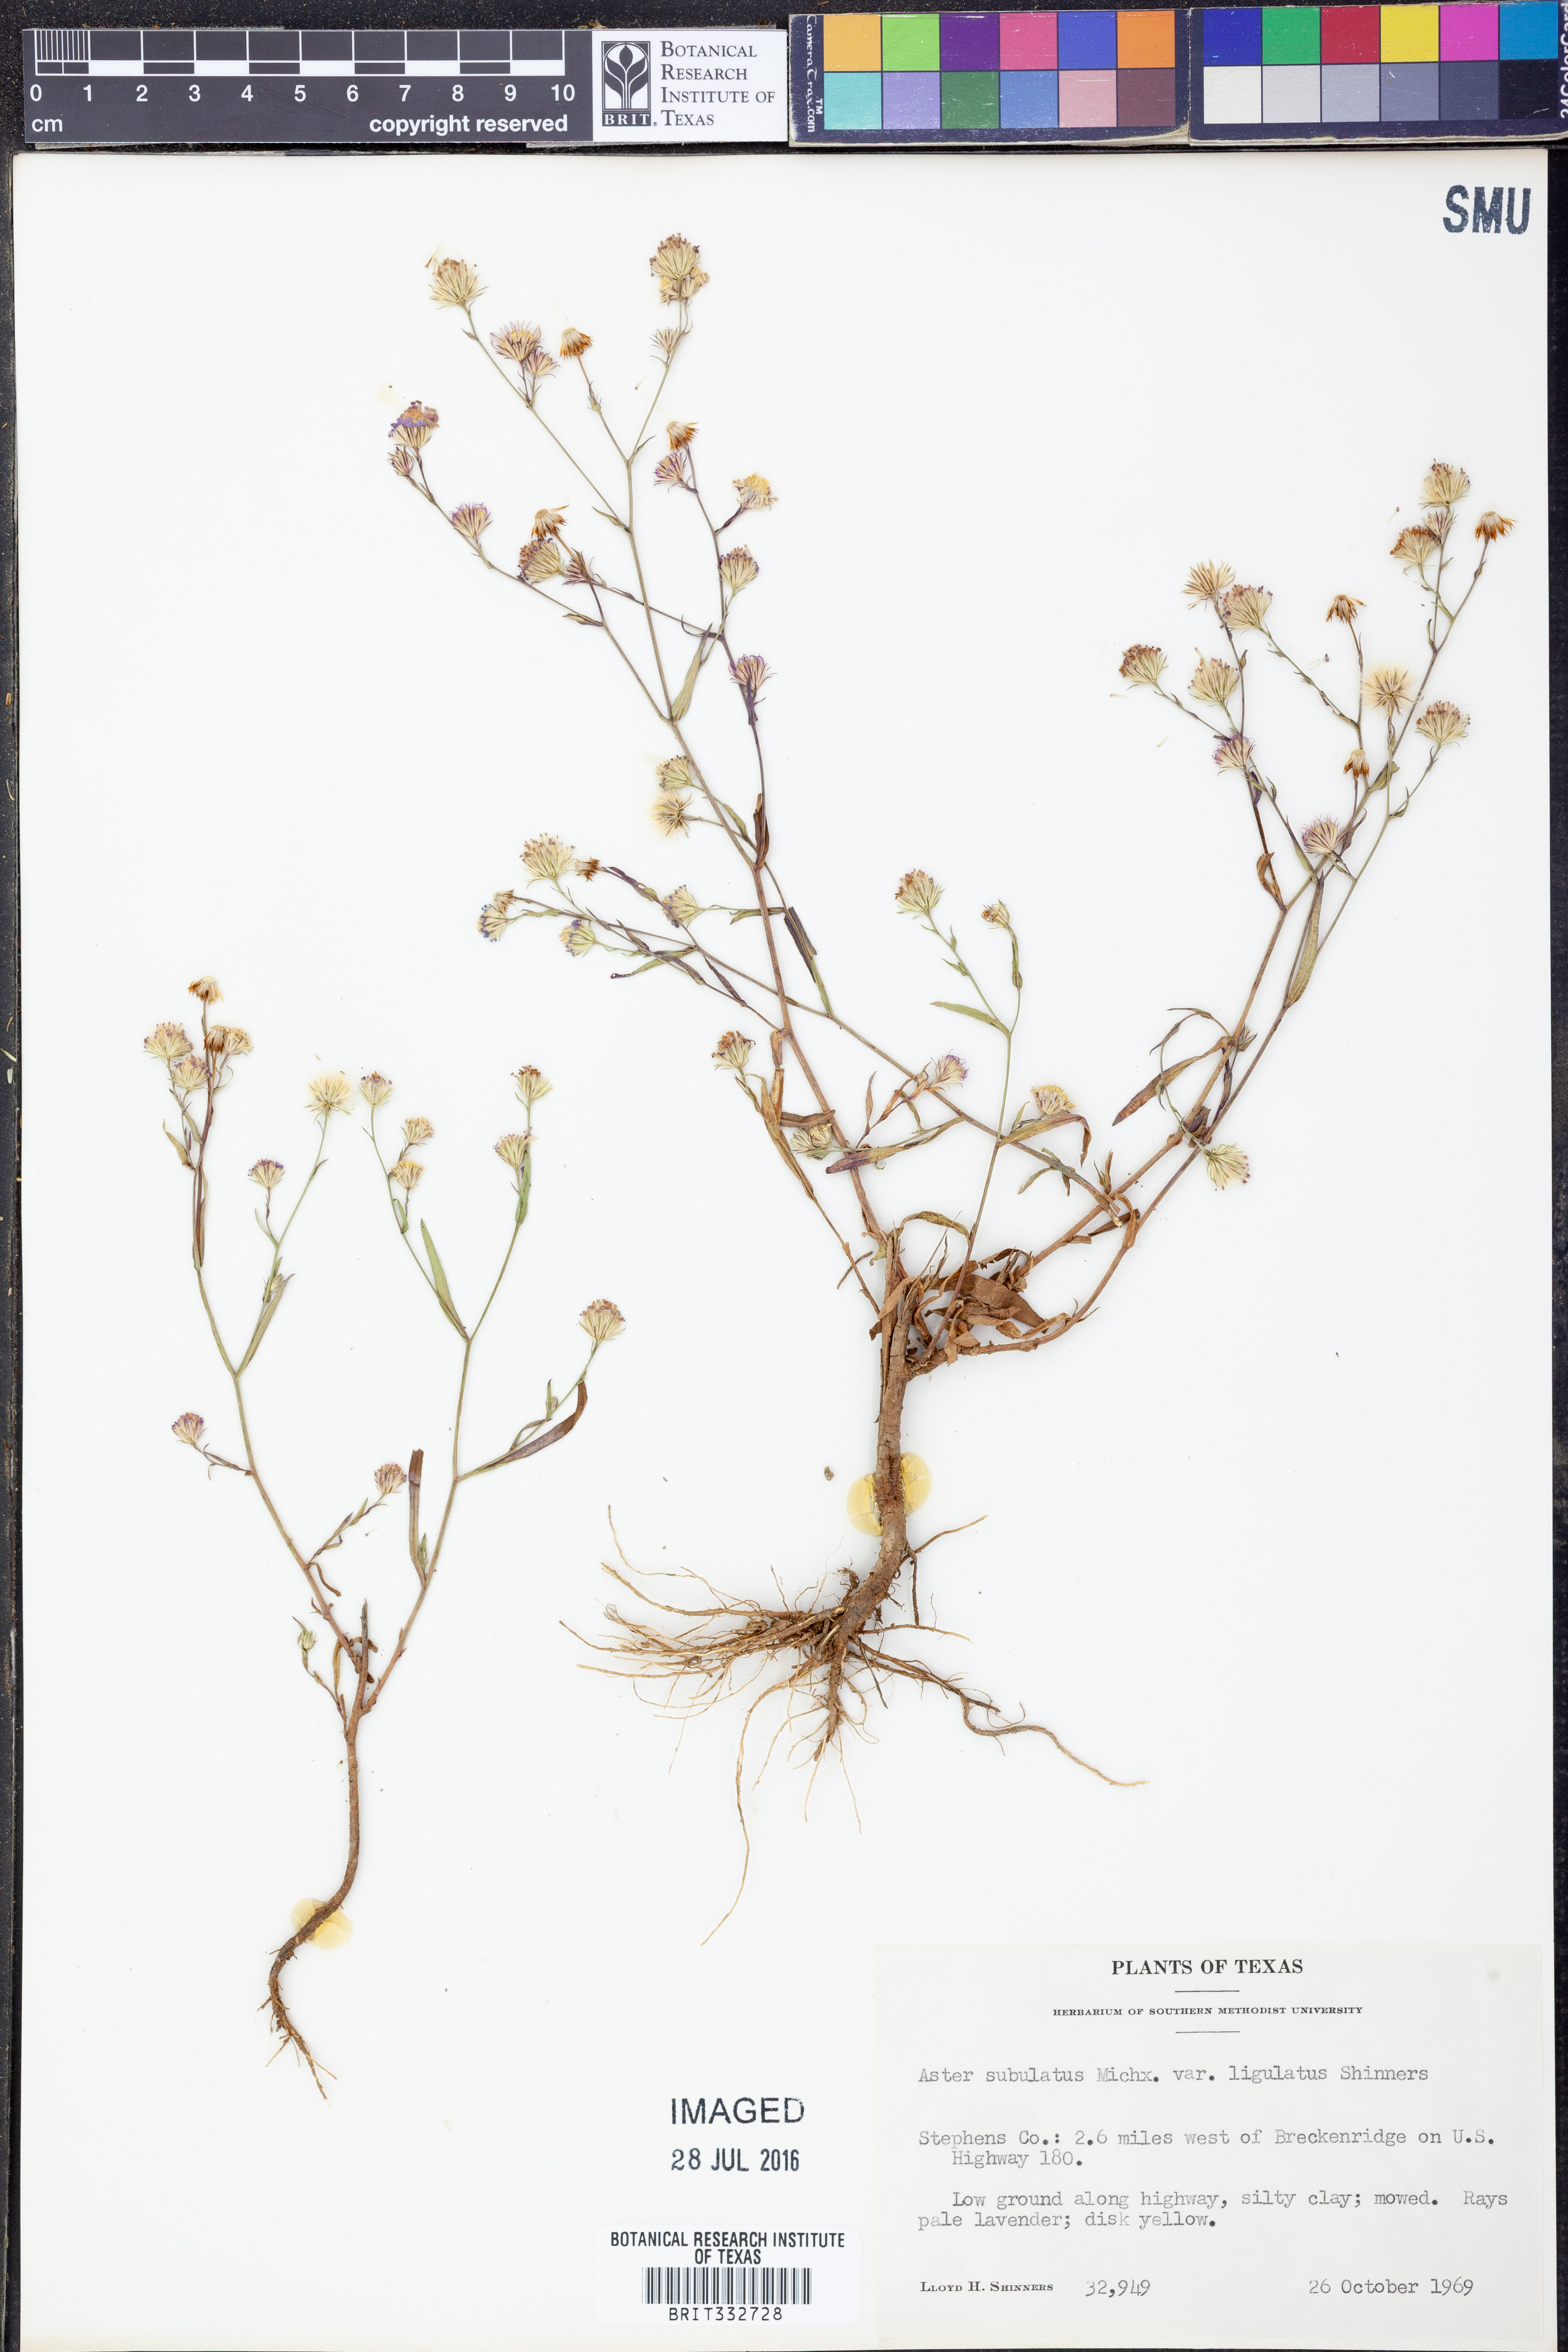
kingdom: Plantae
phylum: Tracheophyta
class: Magnoliopsida
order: Asterales
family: Asteraceae
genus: Symphyotrichum
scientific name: Symphyotrichum divaricatum
